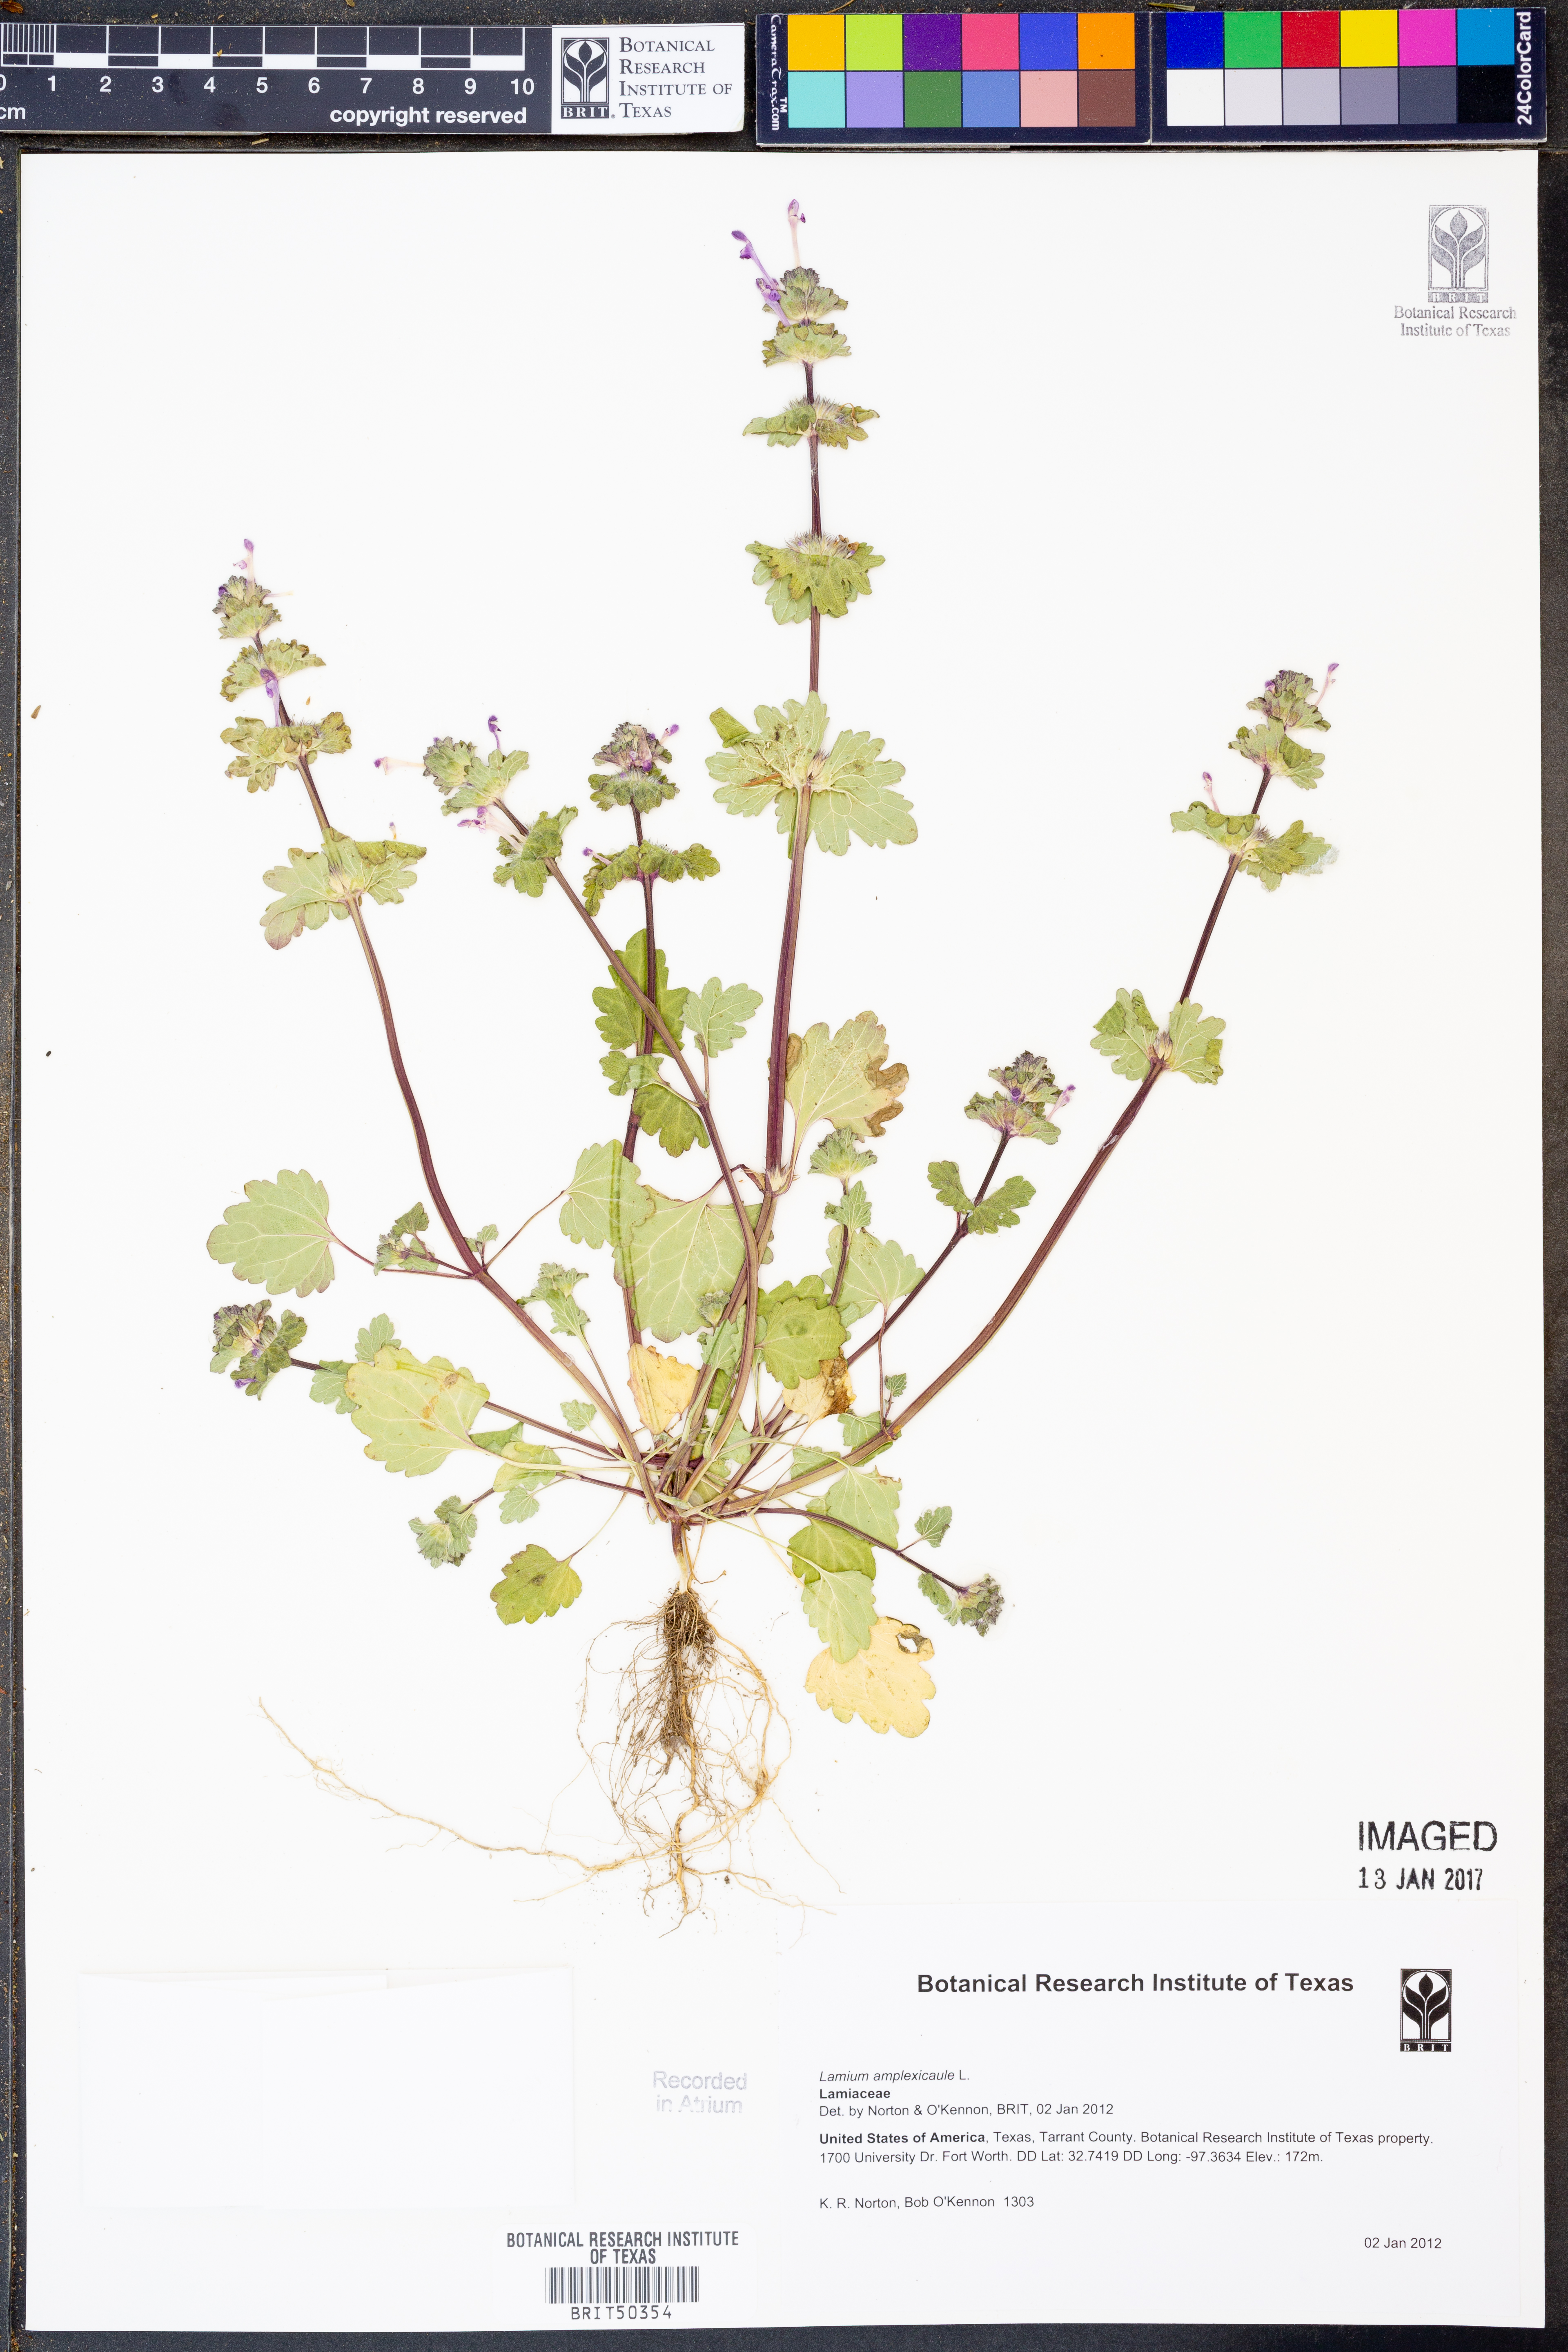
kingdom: Plantae
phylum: Tracheophyta
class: Magnoliopsida
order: Lamiales
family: Lamiaceae
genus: Lamium
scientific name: Lamium amplexicaule
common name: Henbit dead-nettle
